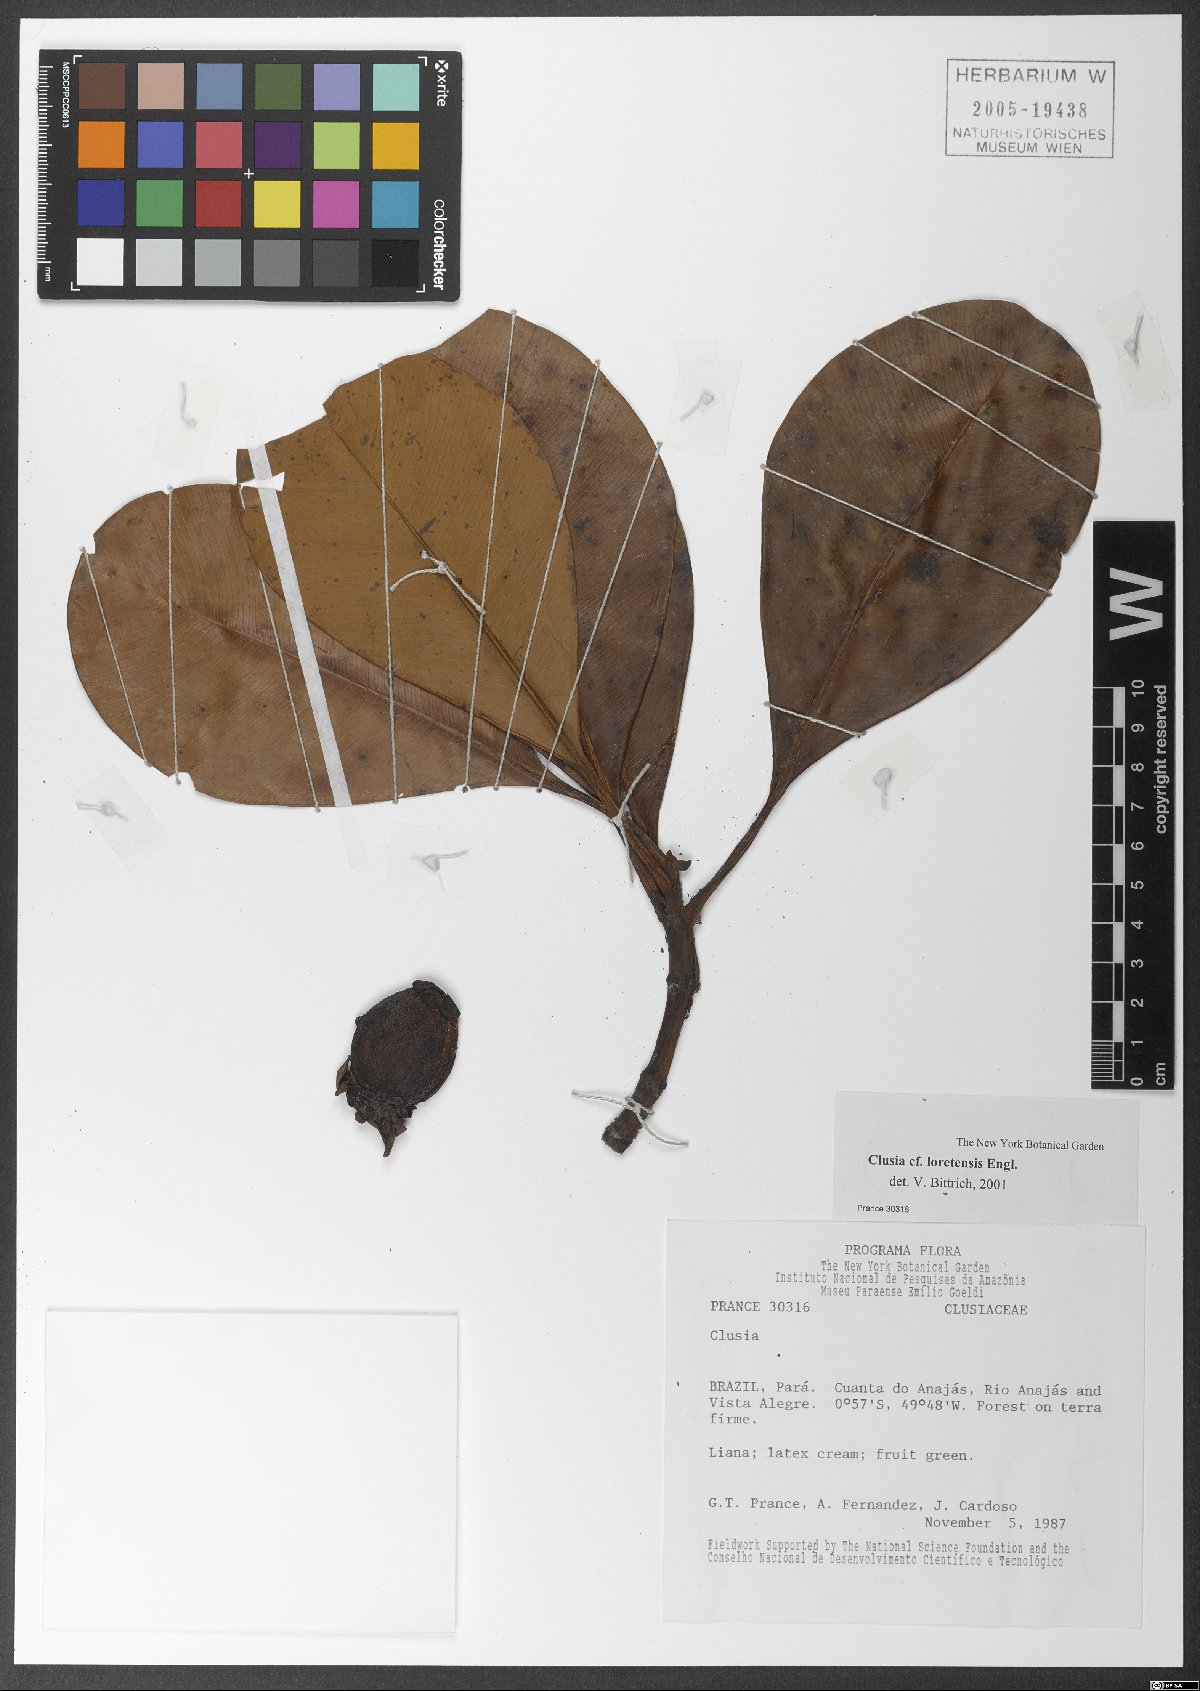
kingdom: Plantae
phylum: Tracheophyta
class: Magnoliopsida
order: Malpighiales
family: Clusiaceae
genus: Clusia
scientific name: Clusia loretensis
